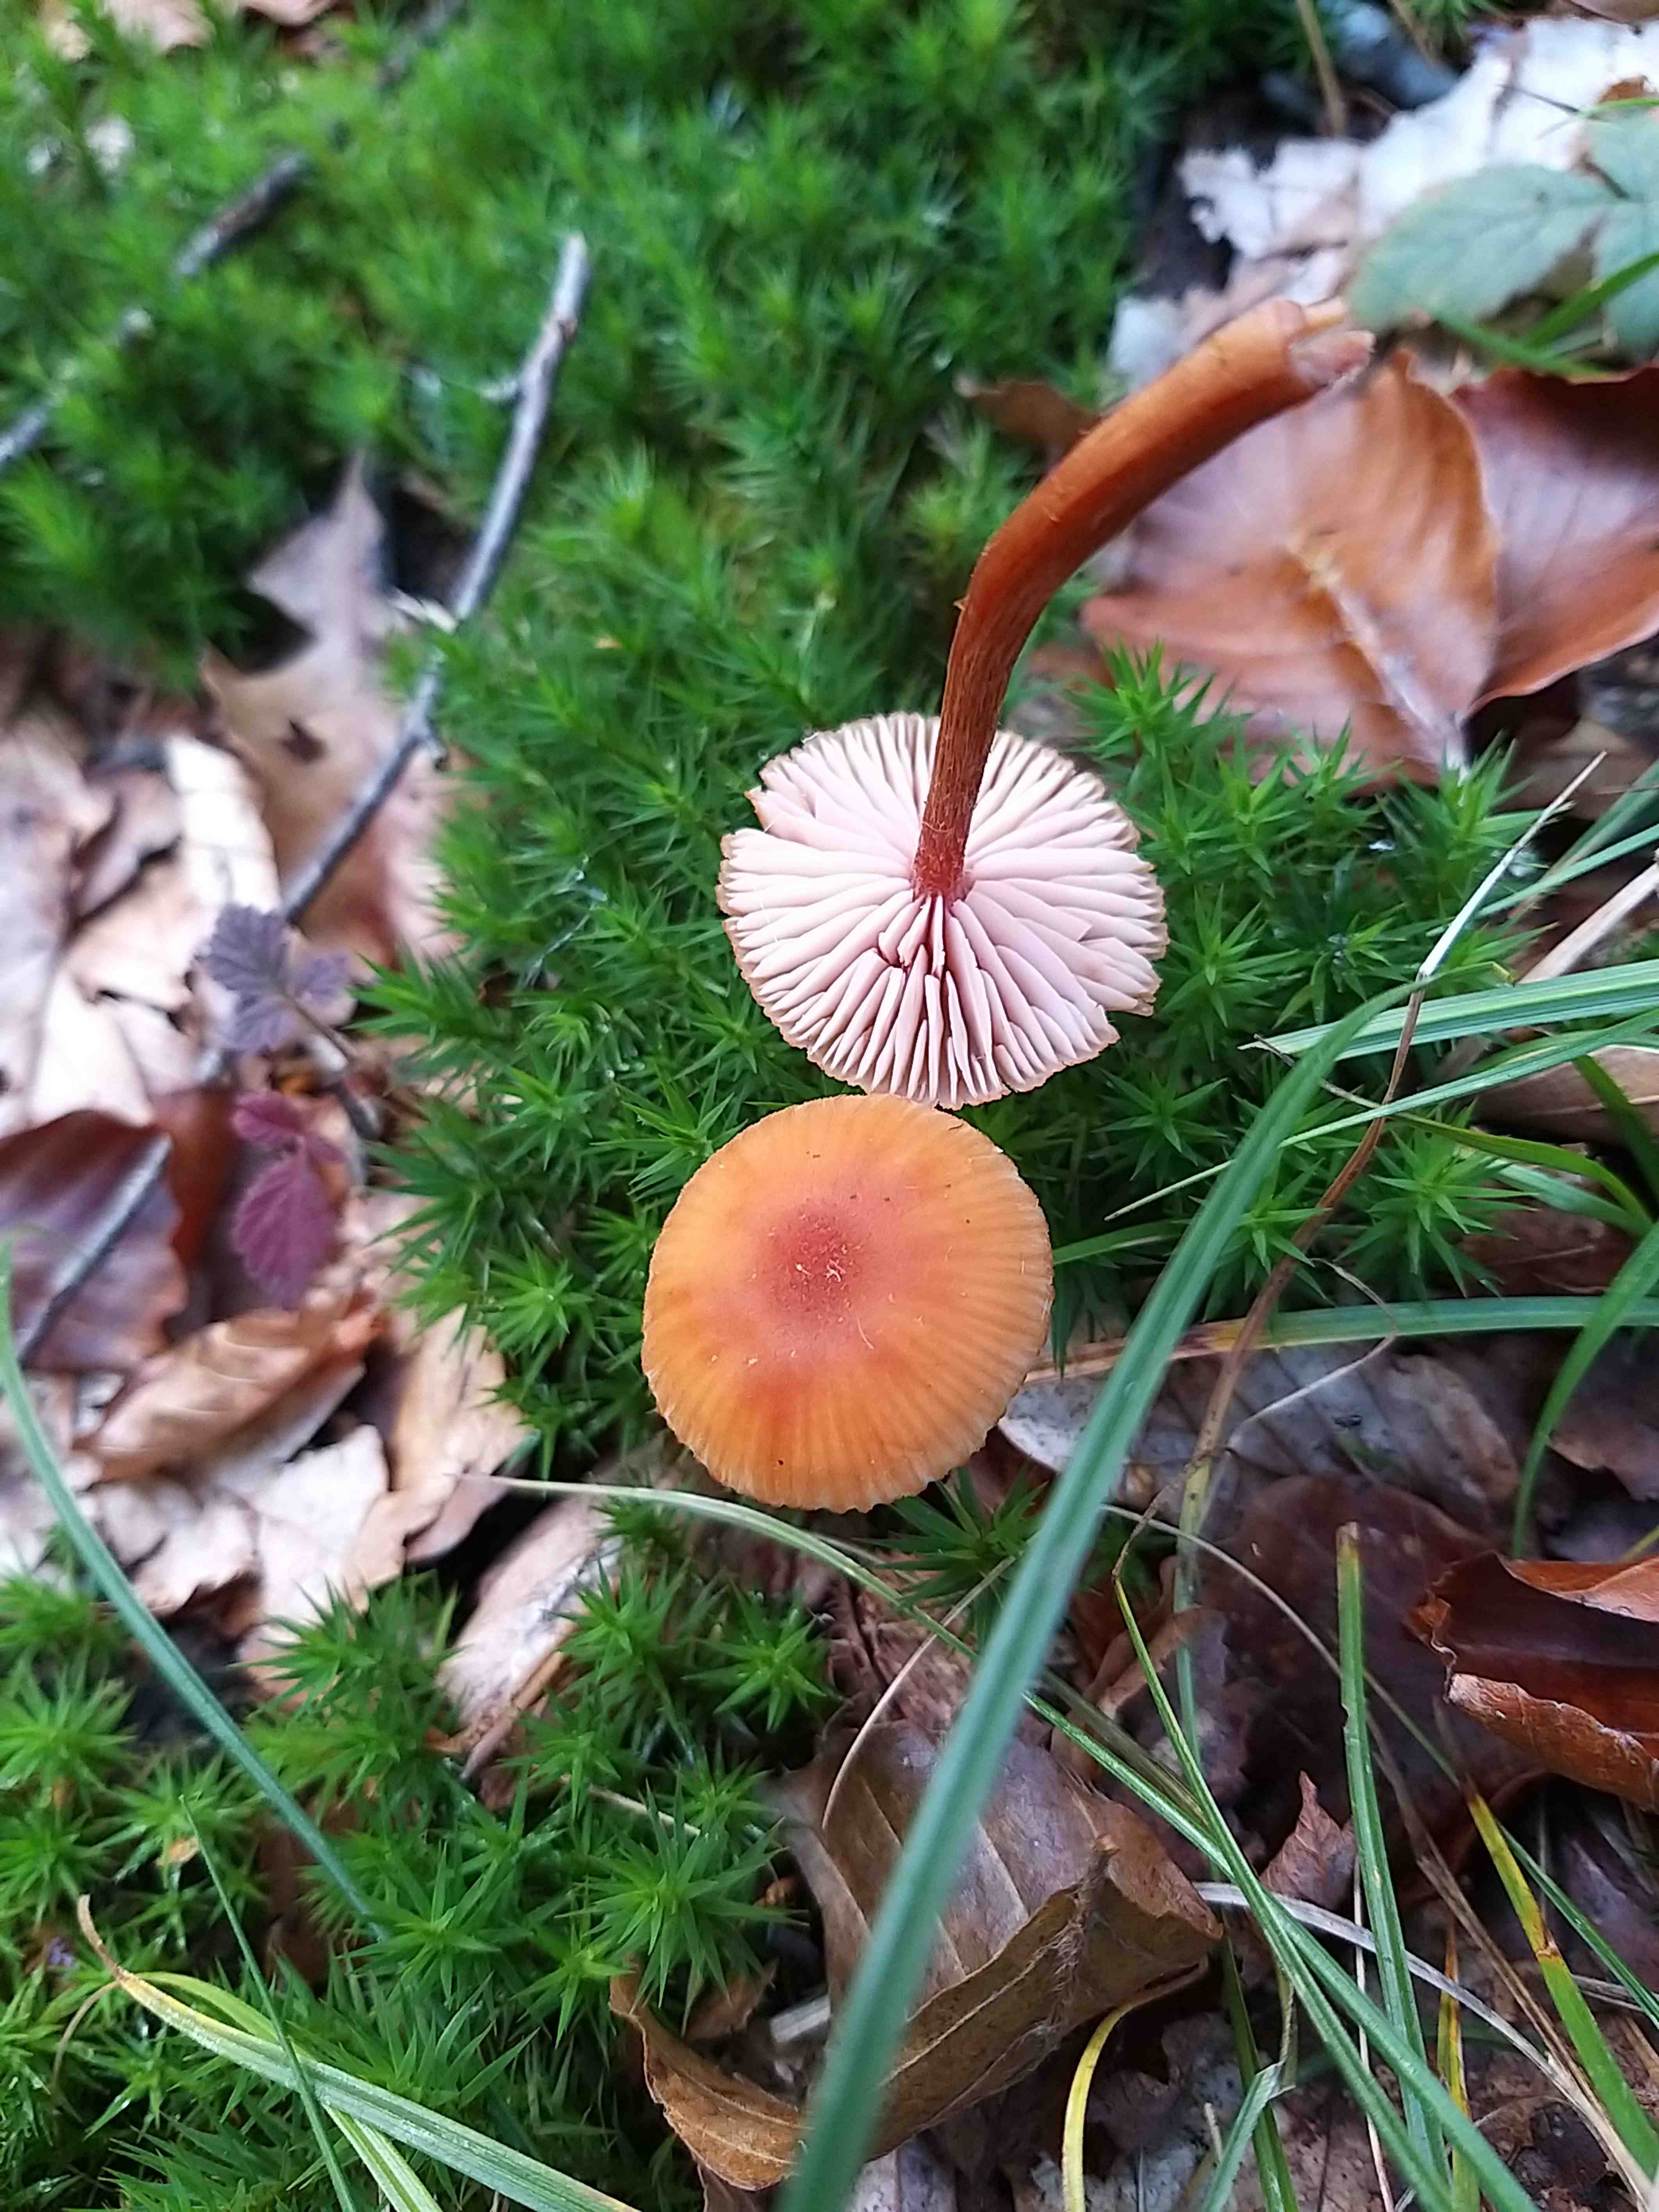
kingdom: Fungi
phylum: Basidiomycota
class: Agaricomycetes
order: Agaricales
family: Hydnangiaceae
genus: Laccaria
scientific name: Laccaria proxima
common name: stor ametysthat
